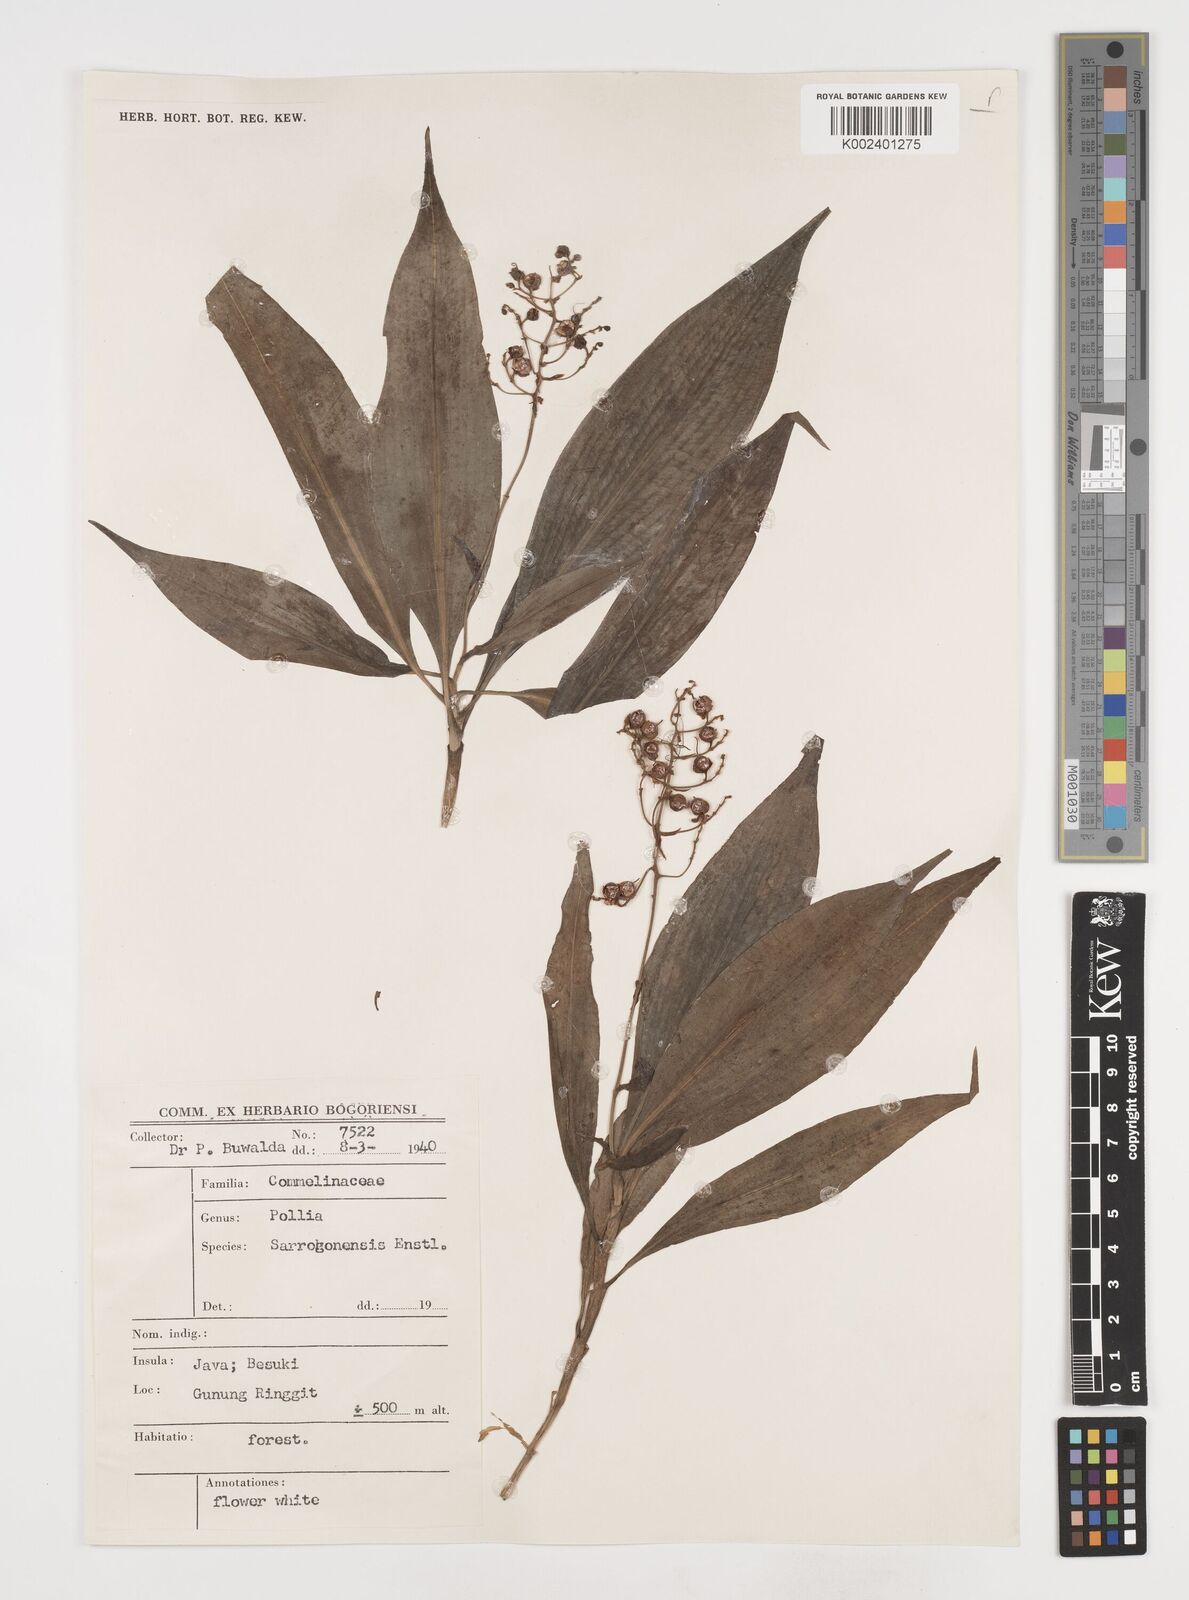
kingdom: Plantae
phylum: Tracheophyta
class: Liliopsida
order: Commelinales
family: Commelinaceae
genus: Pollia
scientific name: Pollia secundiflora
